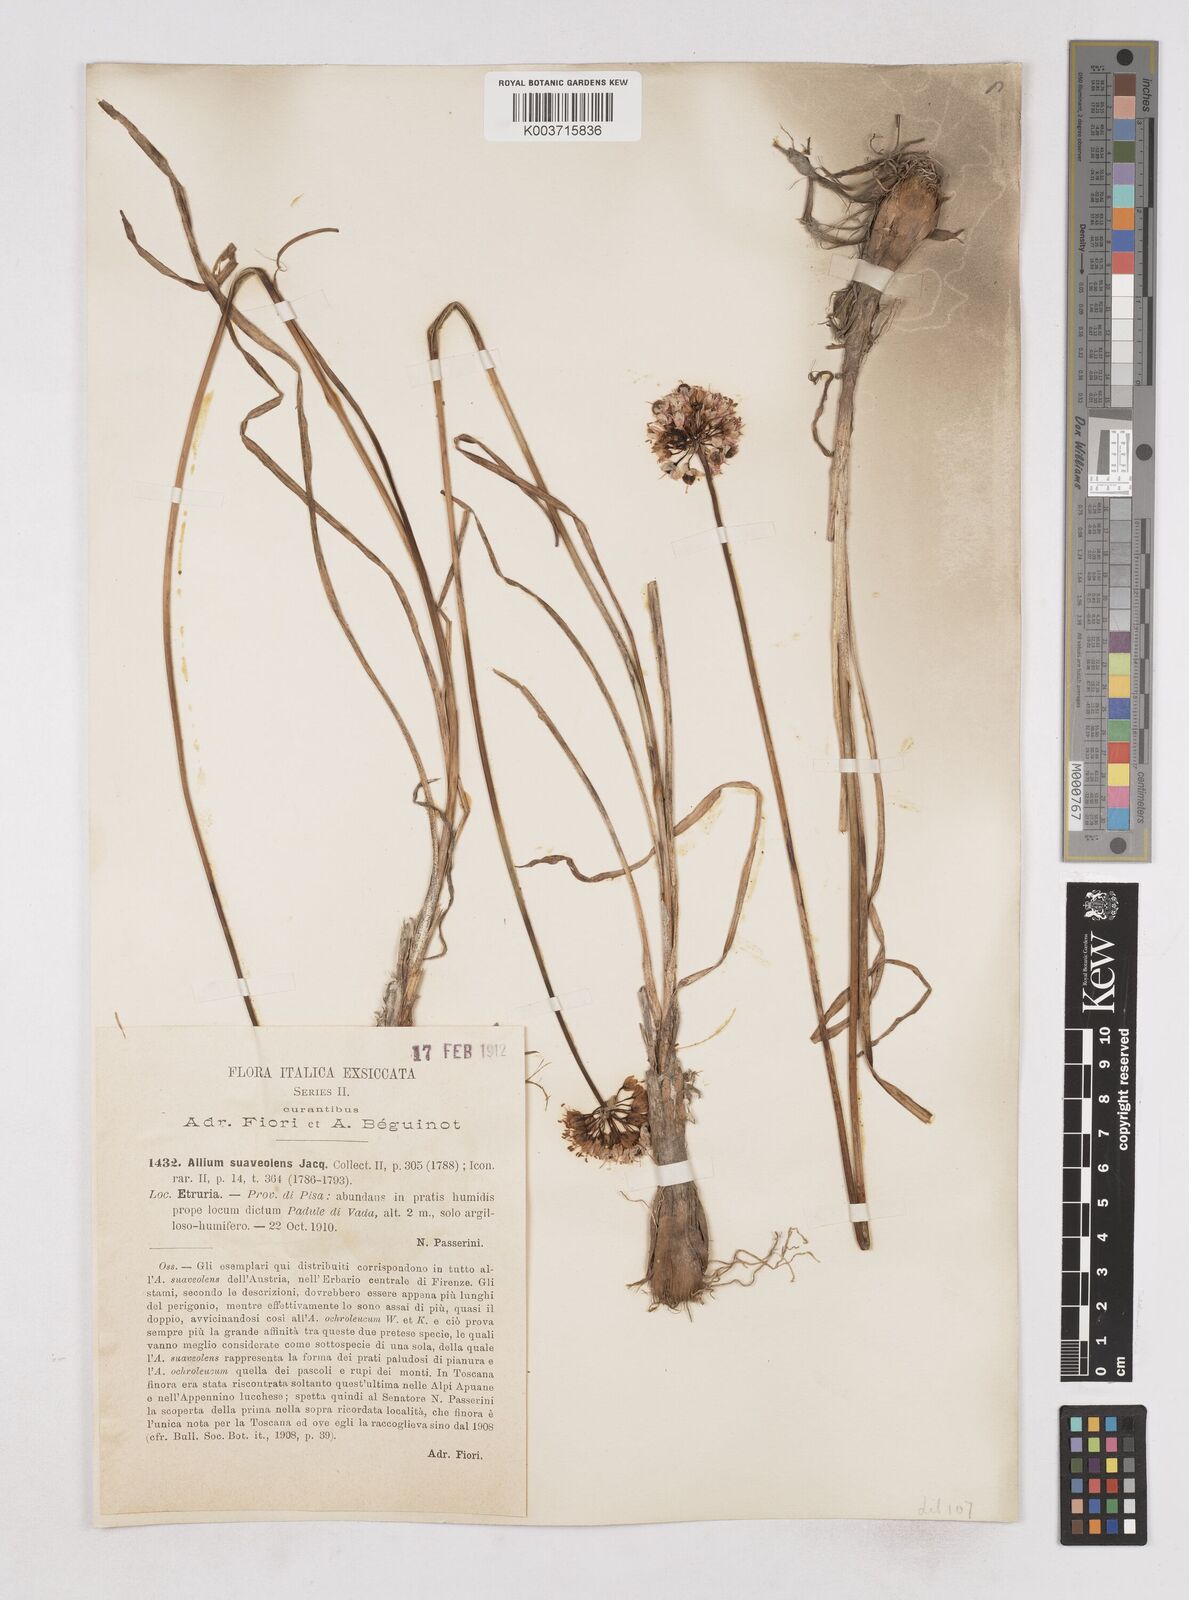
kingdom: Plantae
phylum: Tracheophyta
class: Liliopsida
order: Asparagales
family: Amaryllidaceae
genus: Allium
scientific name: Allium suaveolens
